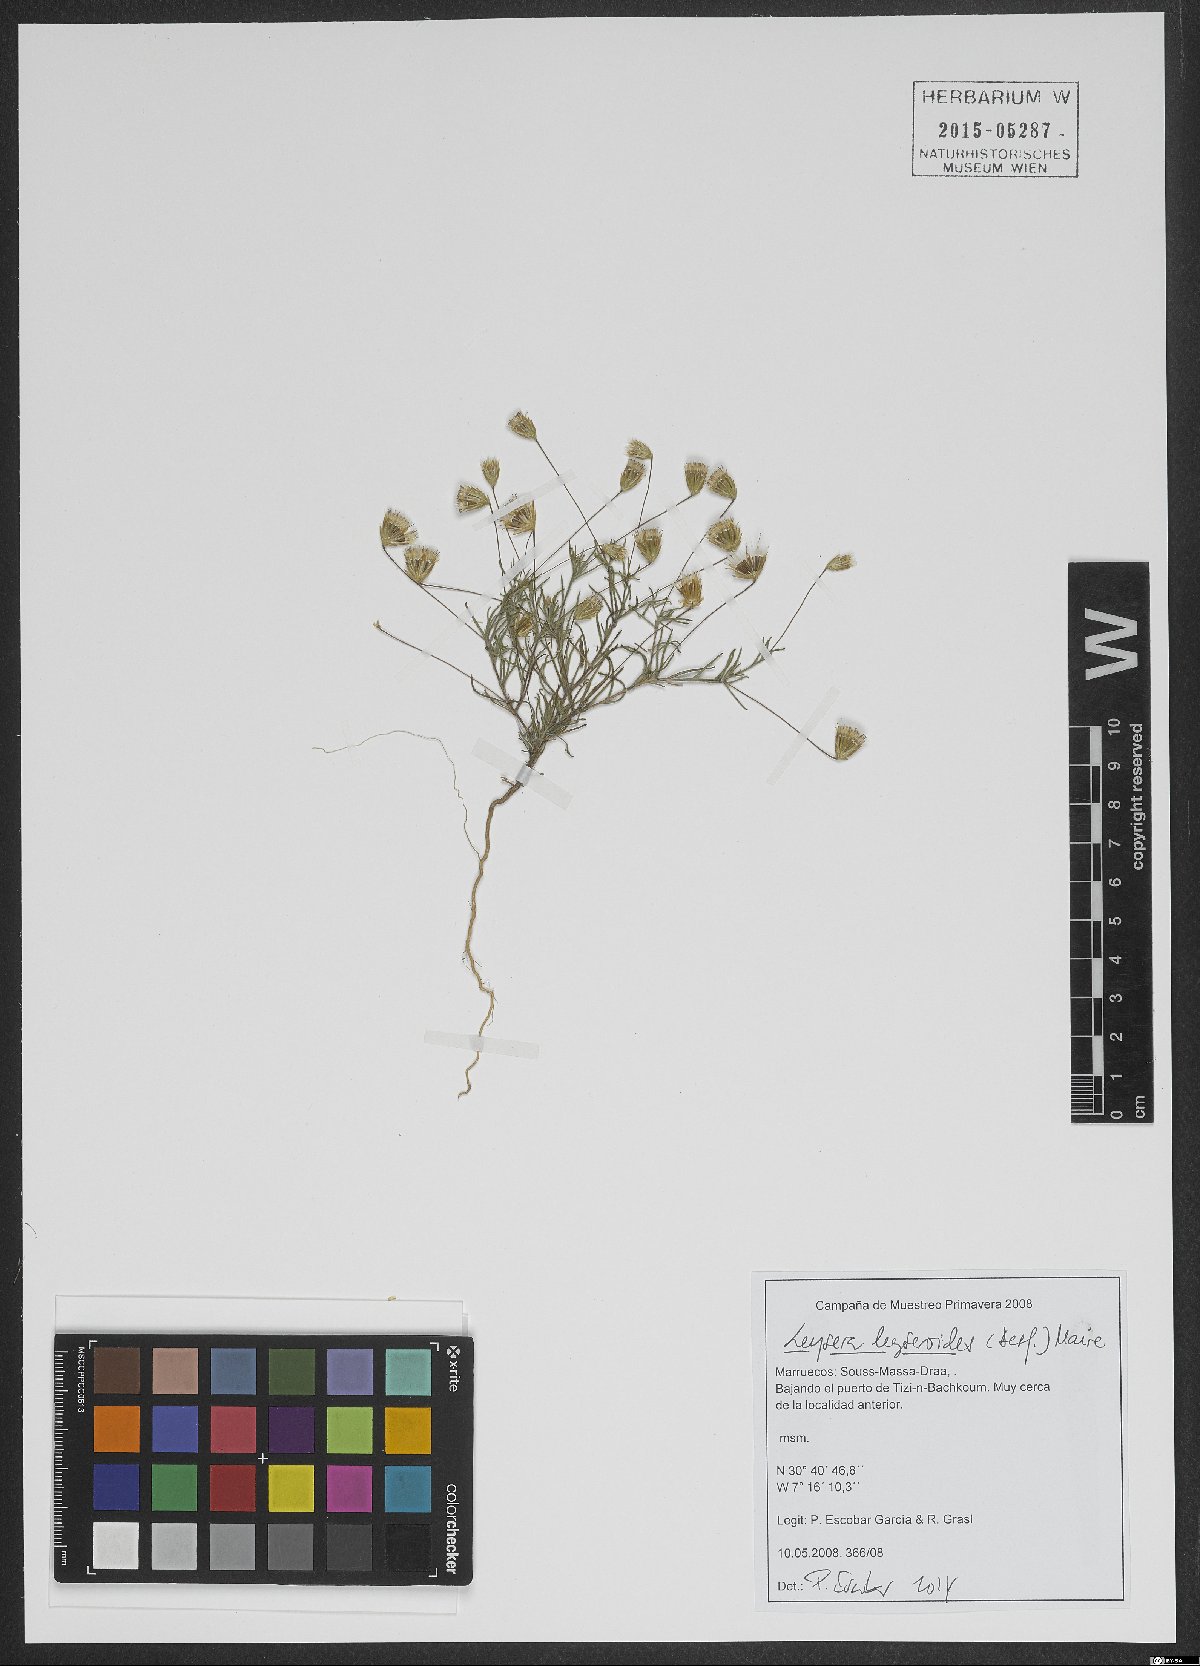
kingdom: Plantae
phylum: Tracheophyta
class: Magnoliopsida
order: Asterales
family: Asteraceae
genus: Leysera
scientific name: Leysera leyseroides
